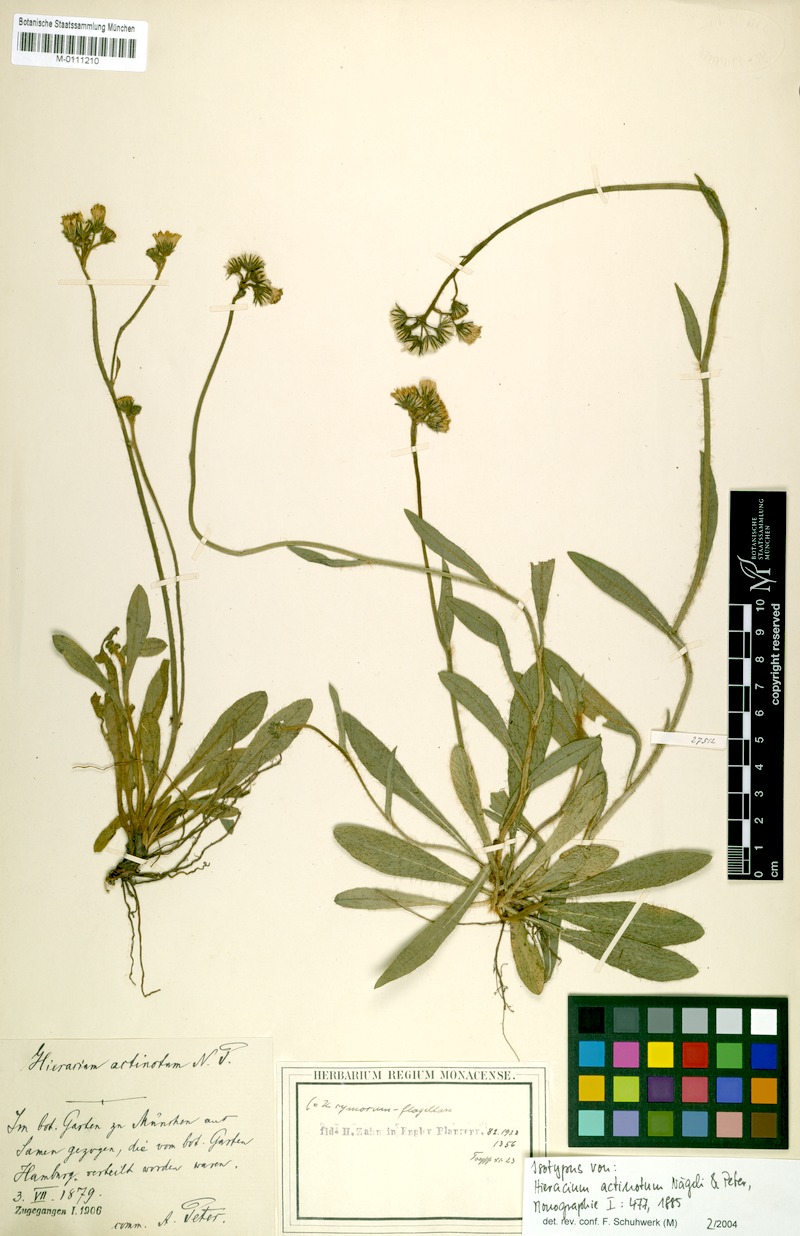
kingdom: Plantae
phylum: Tracheophyta
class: Magnoliopsida
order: Asterales
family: Asteraceae
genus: Hieracium
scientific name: Hieracium actinotum
